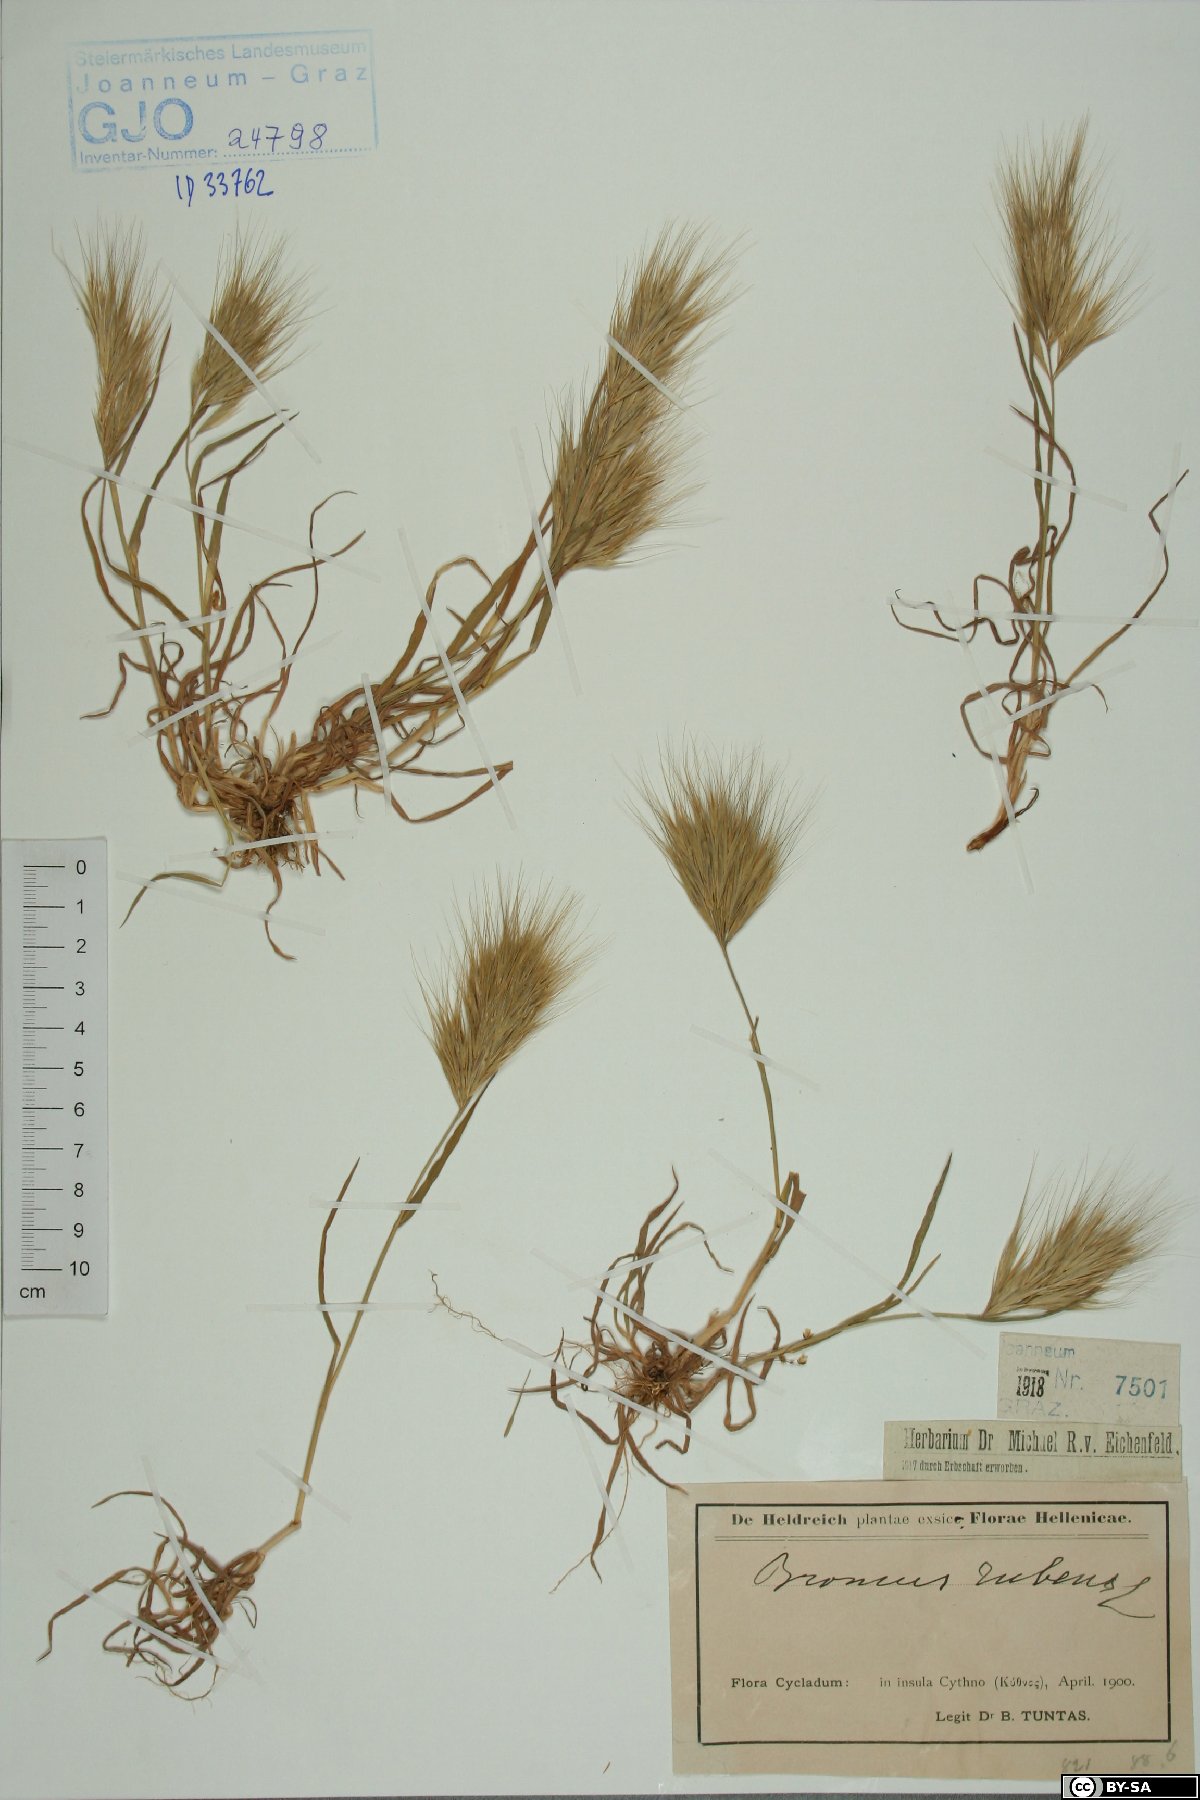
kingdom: Plantae
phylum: Tracheophyta
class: Liliopsida
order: Poales
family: Poaceae
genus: Bromus
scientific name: Bromus rubens
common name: Red brome
